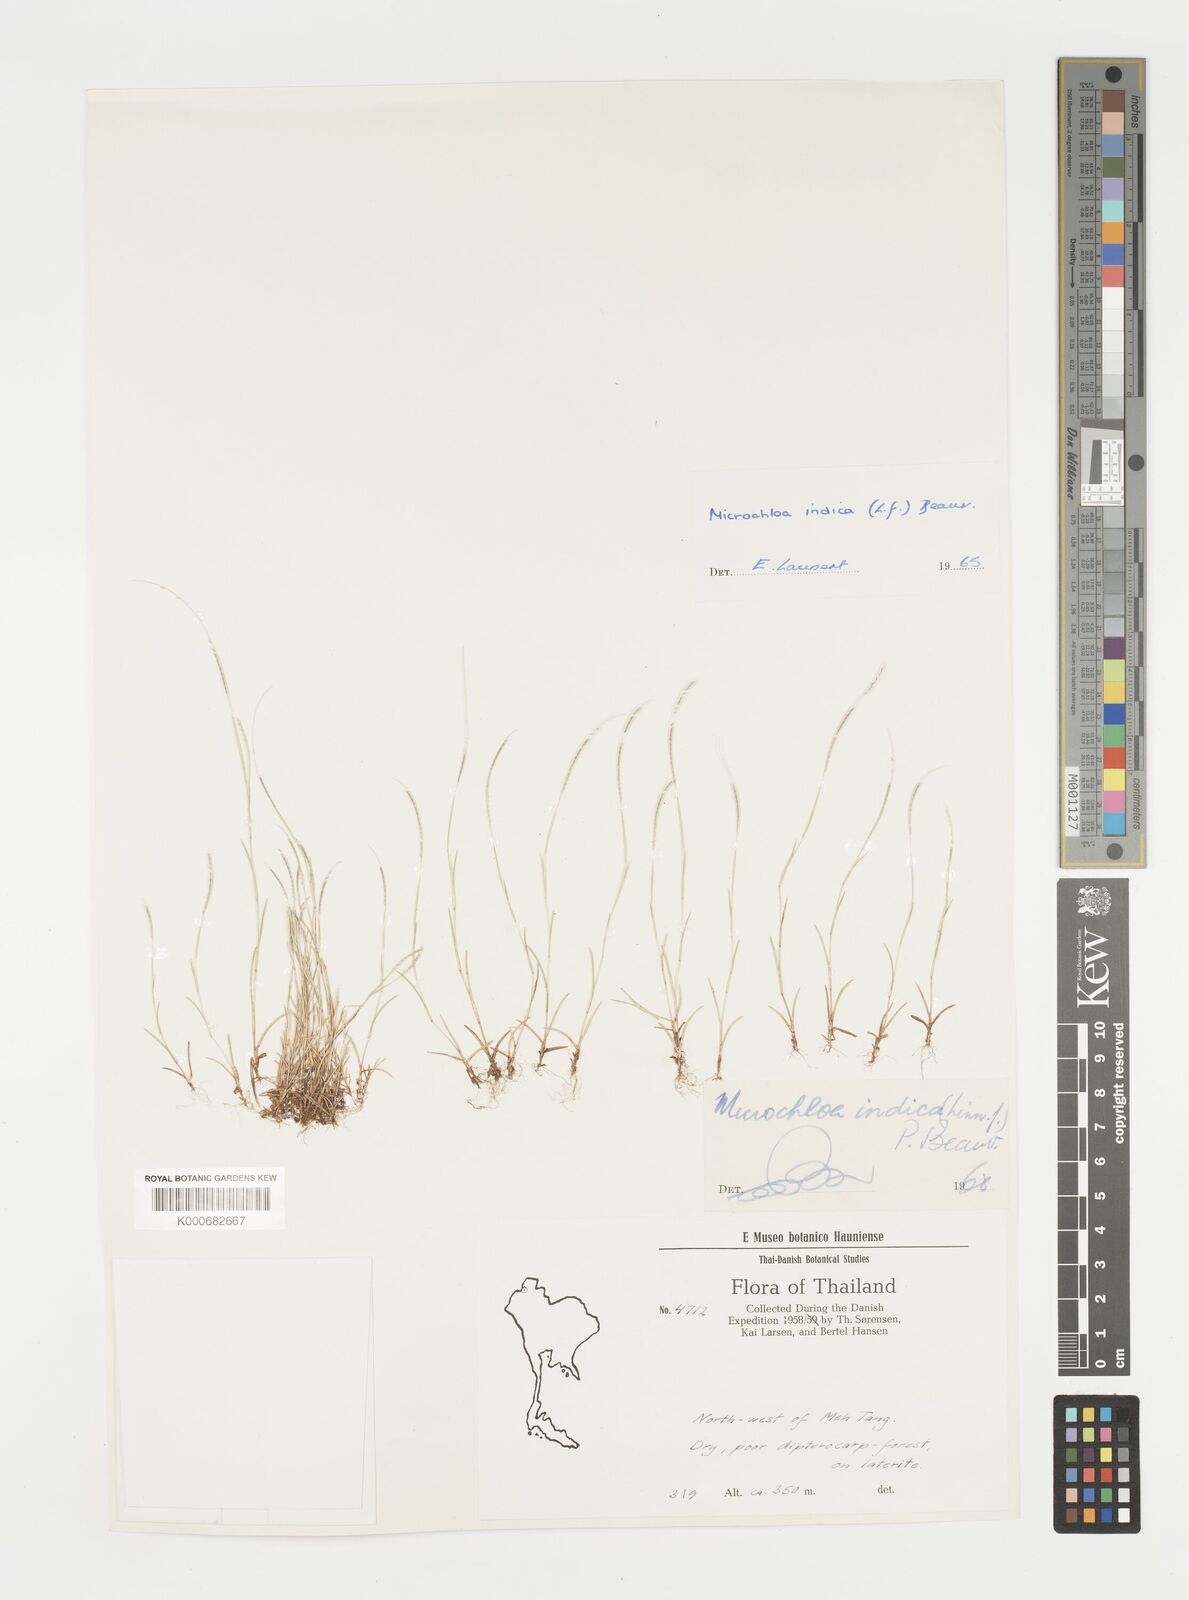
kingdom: Plantae
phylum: Tracheophyta
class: Liliopsida
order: Poales
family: Poaceae
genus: Microchloa
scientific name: Microchloa
